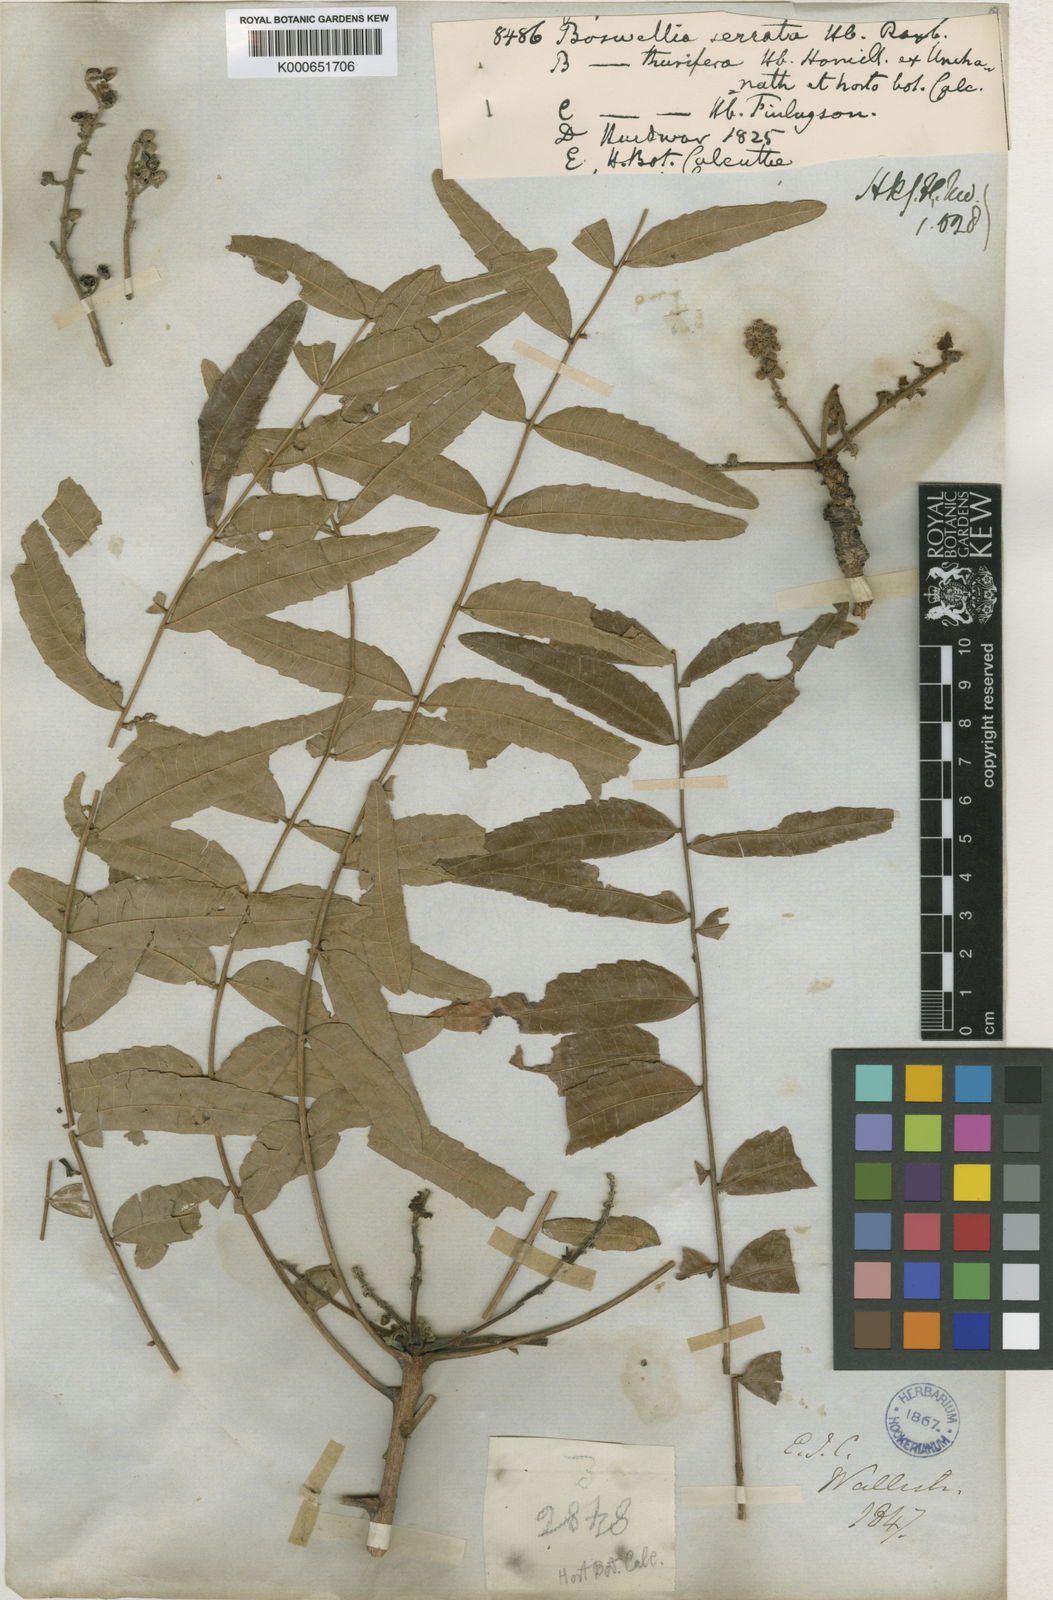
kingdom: Plantae
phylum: Tracheophyta
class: Magnoliopsida
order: Sapindales
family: Burseraceae
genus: Boswellia
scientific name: Boswellia serrata
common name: Boswellia
